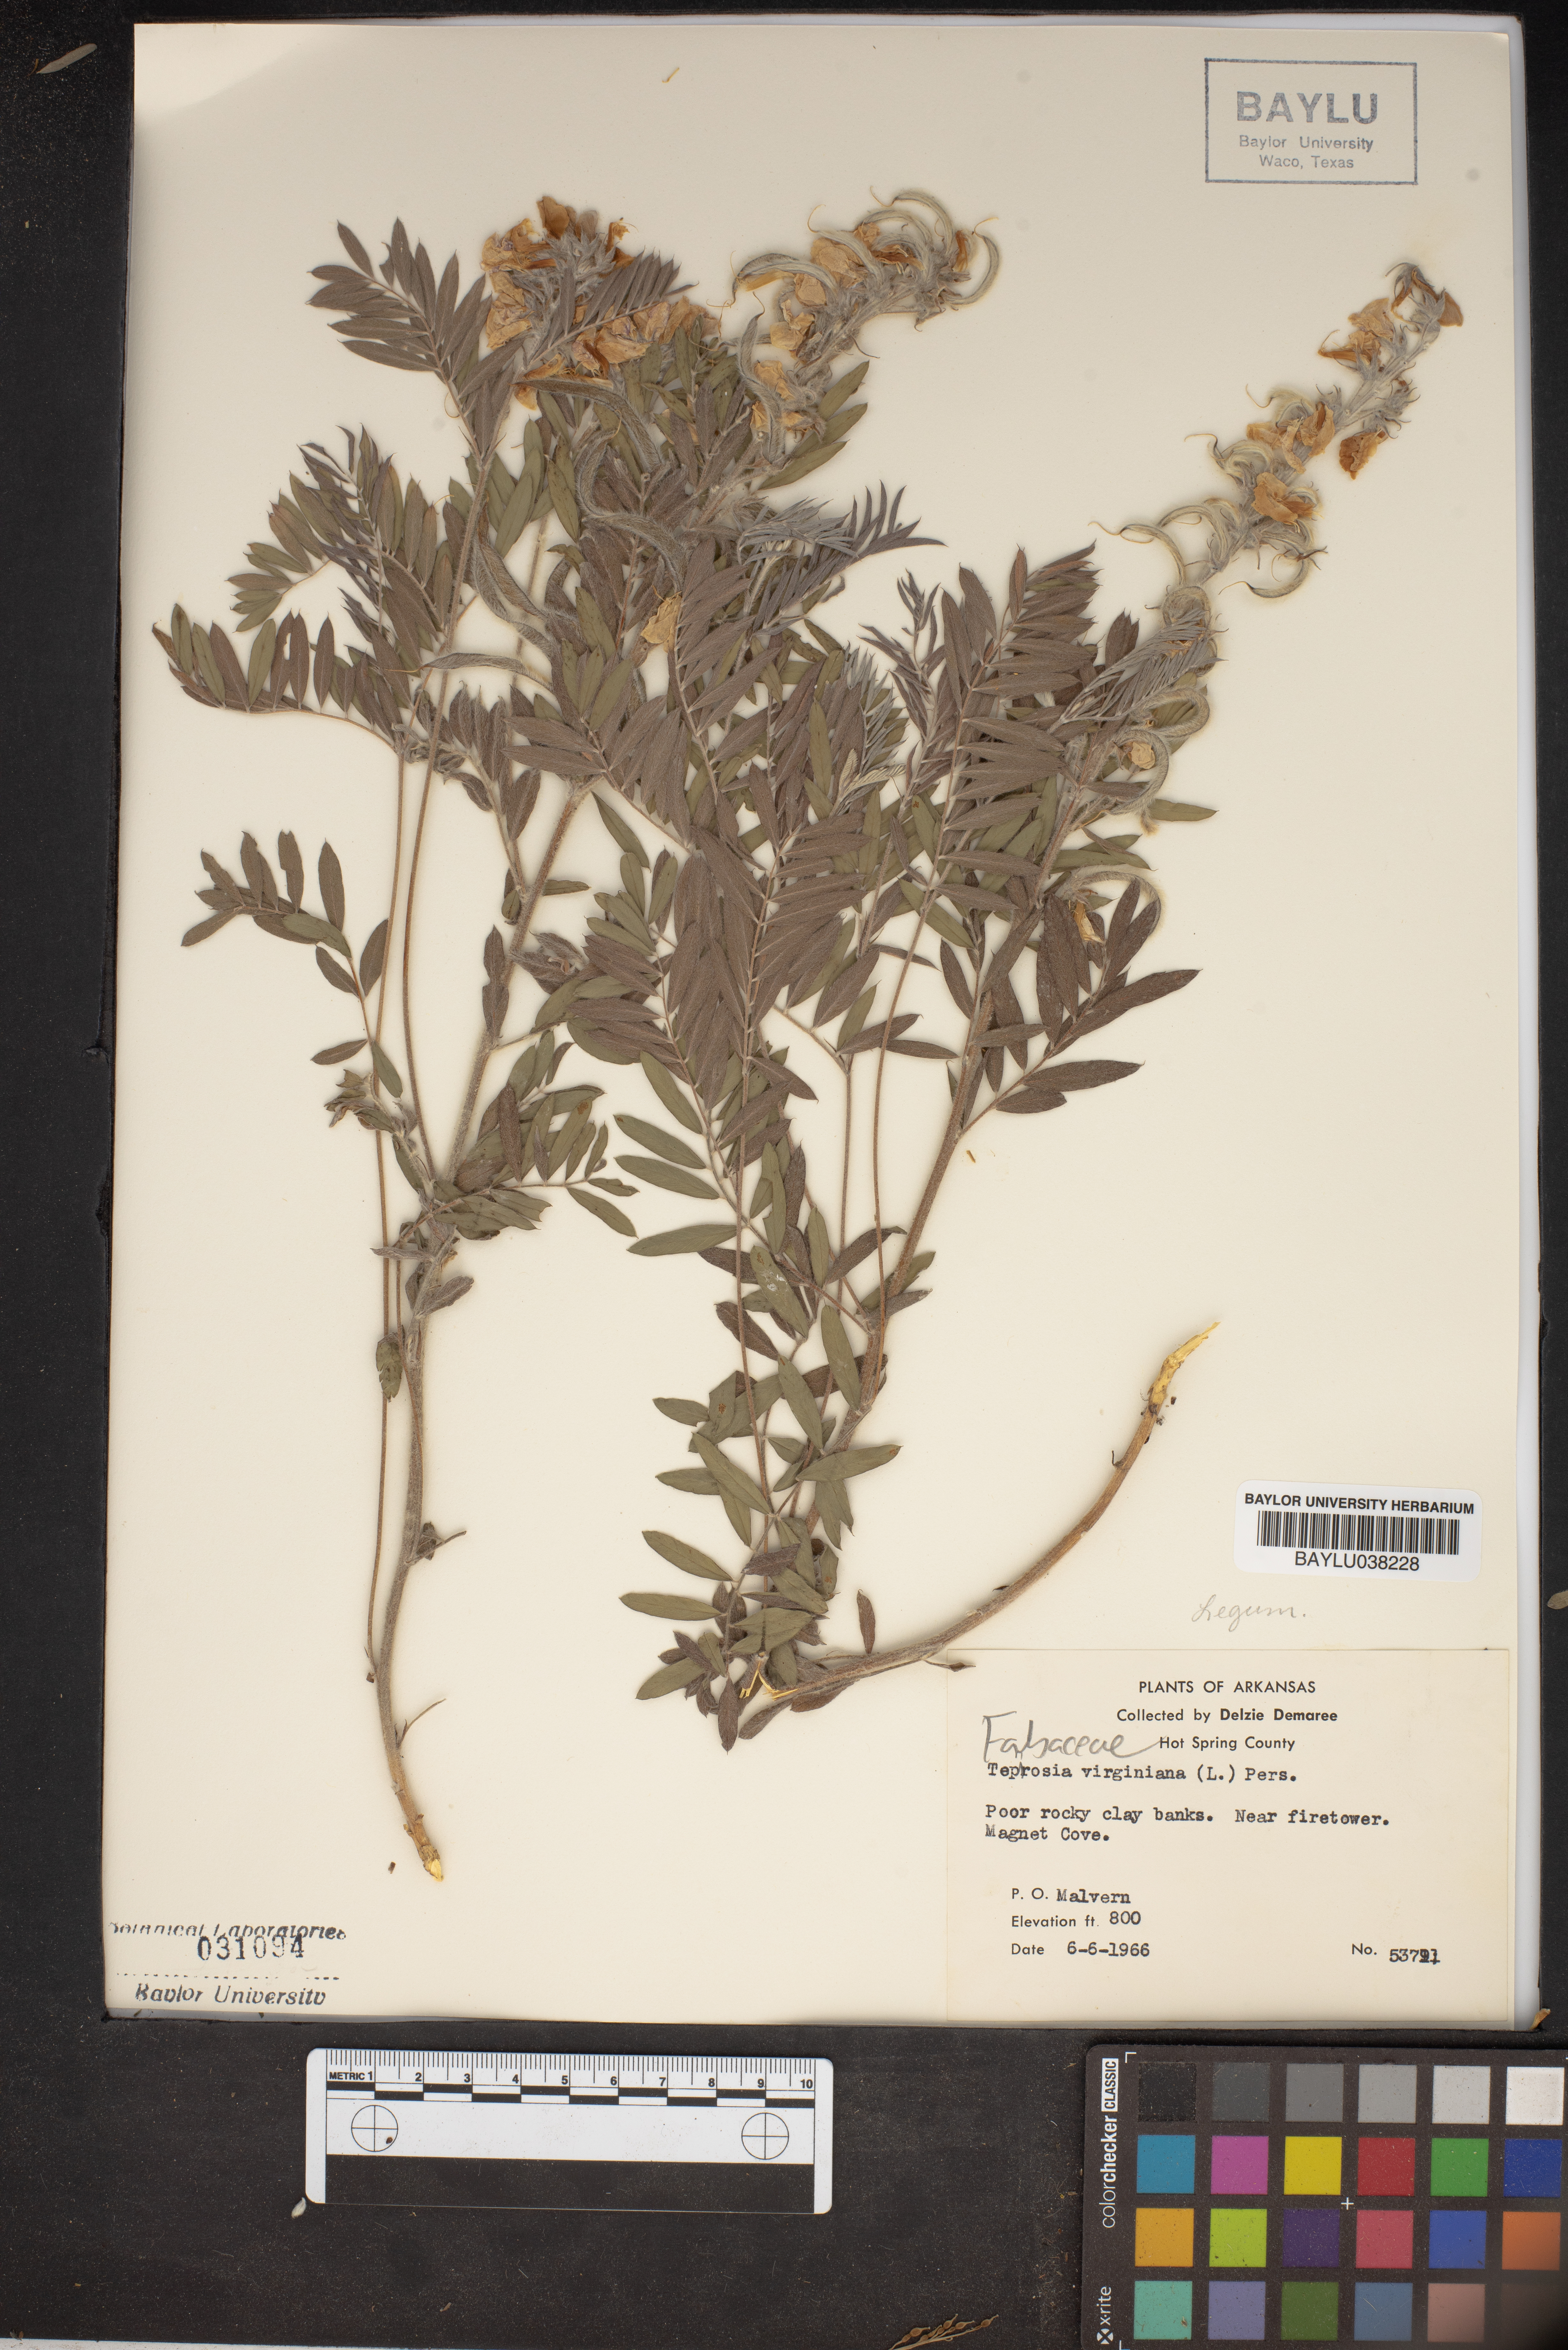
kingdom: Plantae
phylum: Tracheophyta
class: Magnoliopsida
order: Fabales
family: Fabaceae
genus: Tephrosia
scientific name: Tephrosia virginiana
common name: Rabbit-pea
